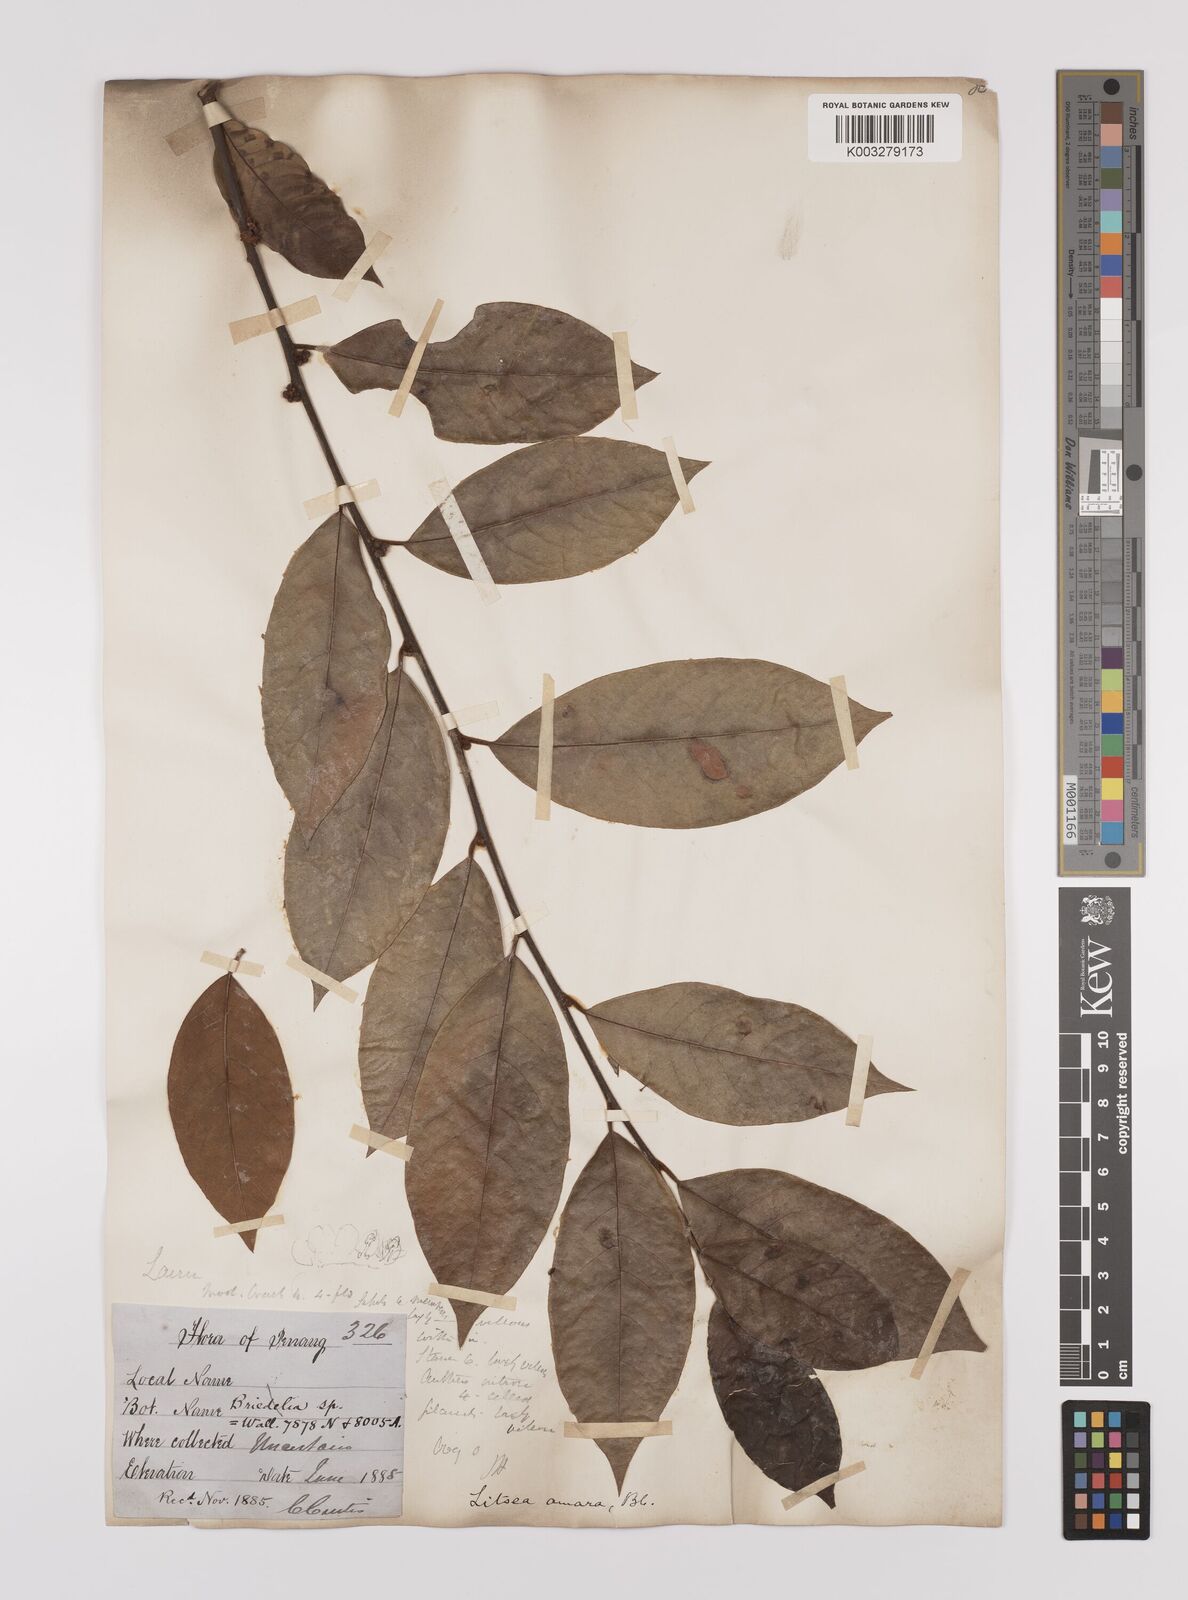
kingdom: Plantae
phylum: Tracheophyta
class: Magnoliopsida
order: Laurales
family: Lauraceae
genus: Litsea
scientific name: Litsea umbellata
